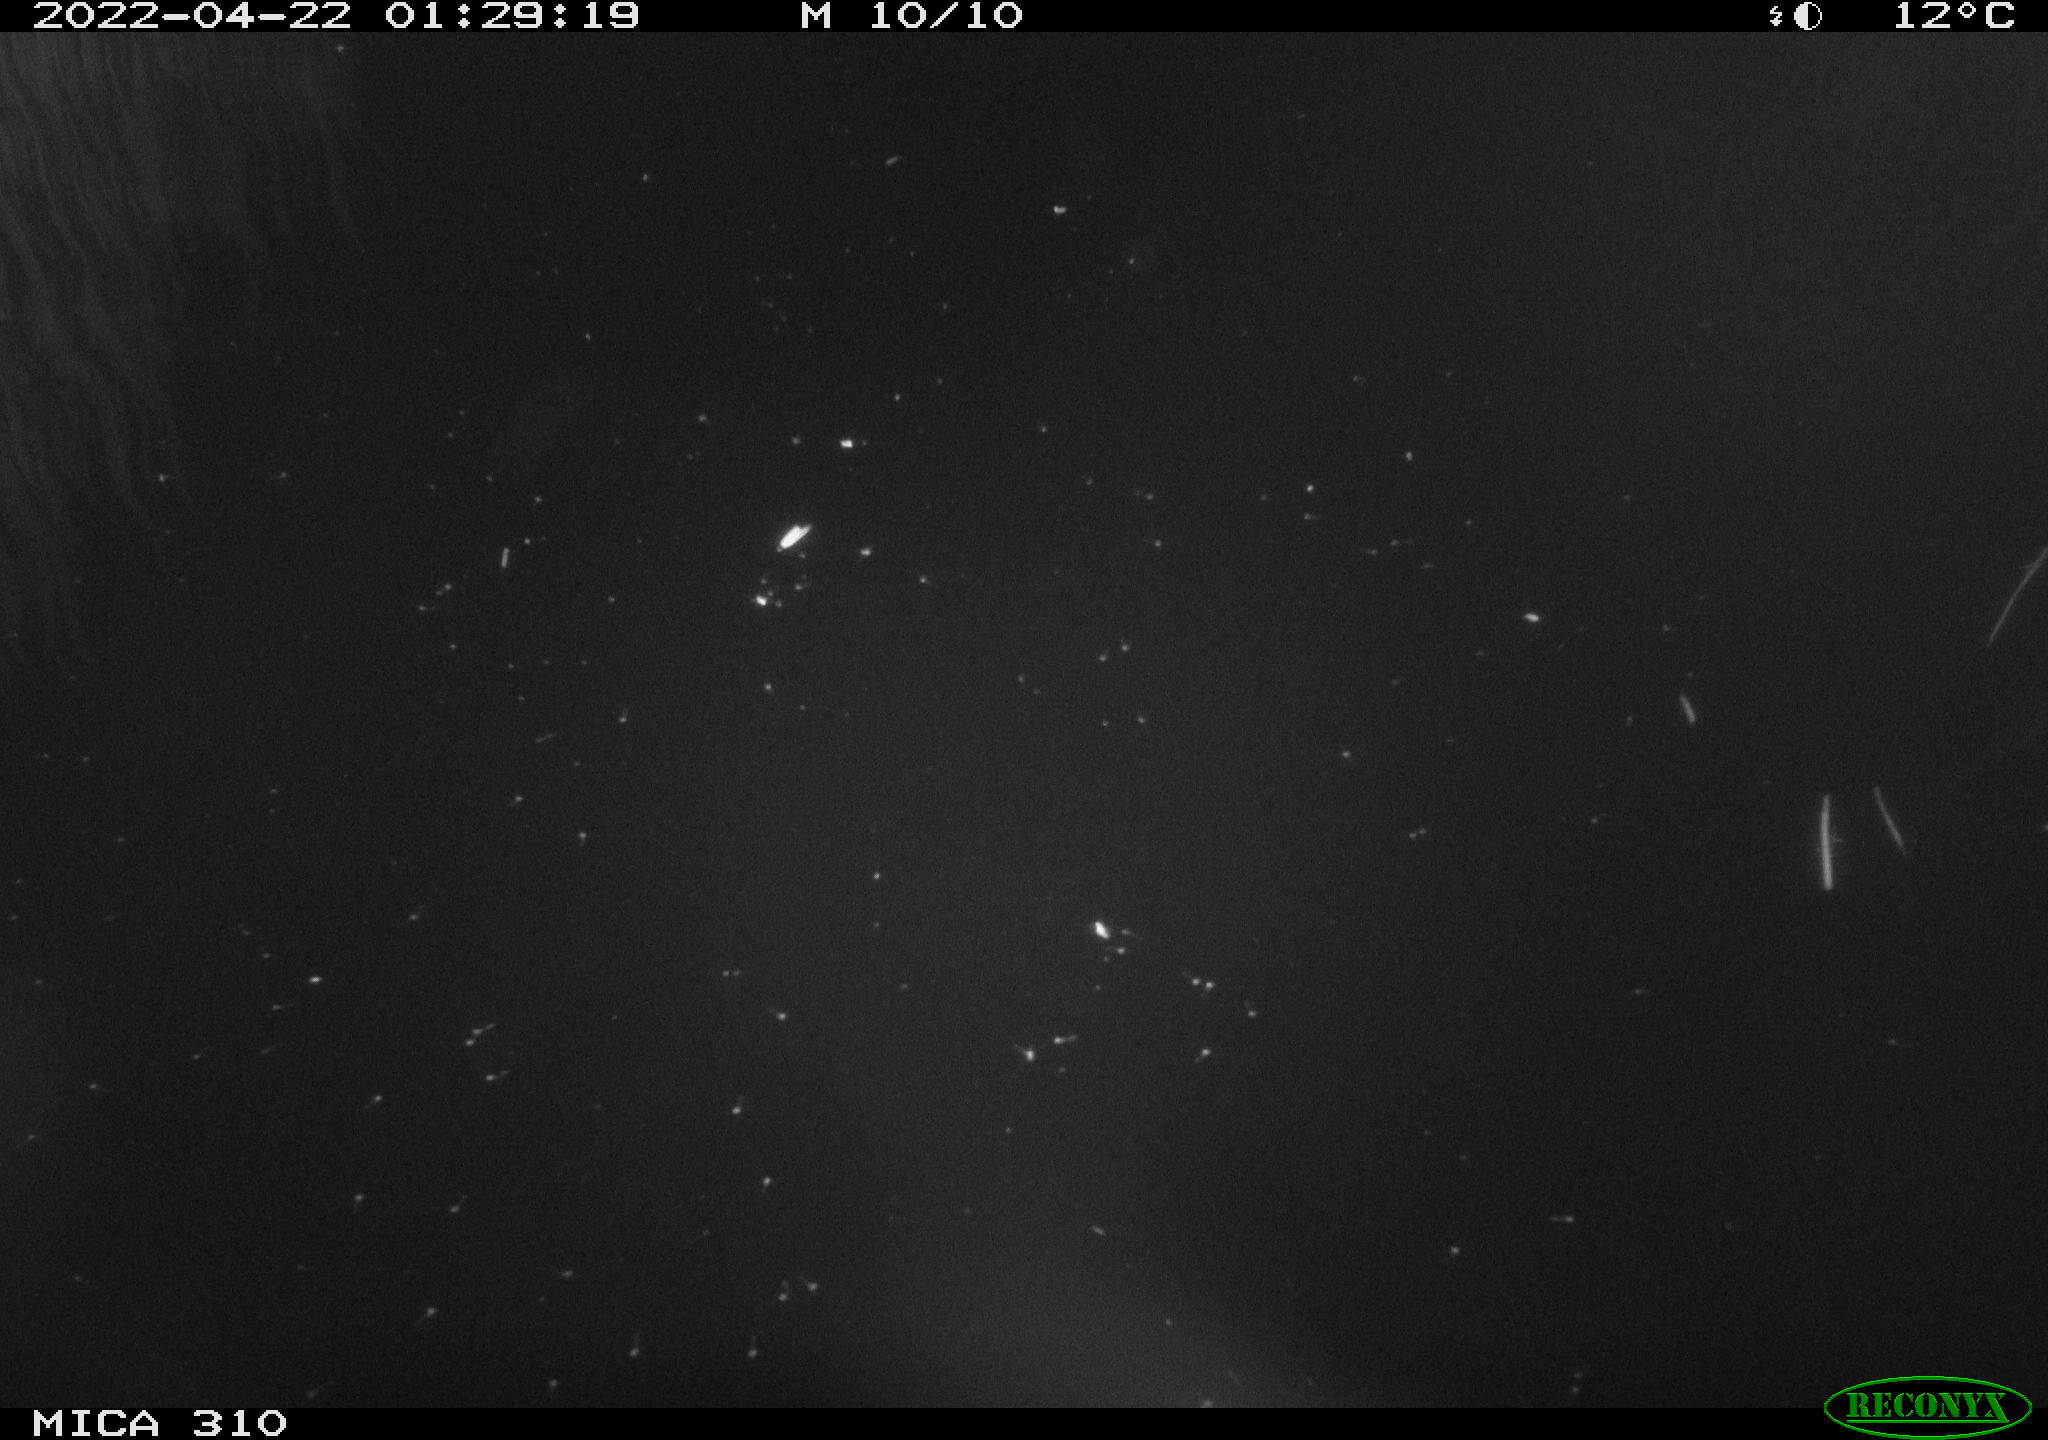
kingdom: Animalia
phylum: Chordata
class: Aves
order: Anseriformes
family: Anatidae
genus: Anas
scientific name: Anas platyrhynchos
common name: Mallard
